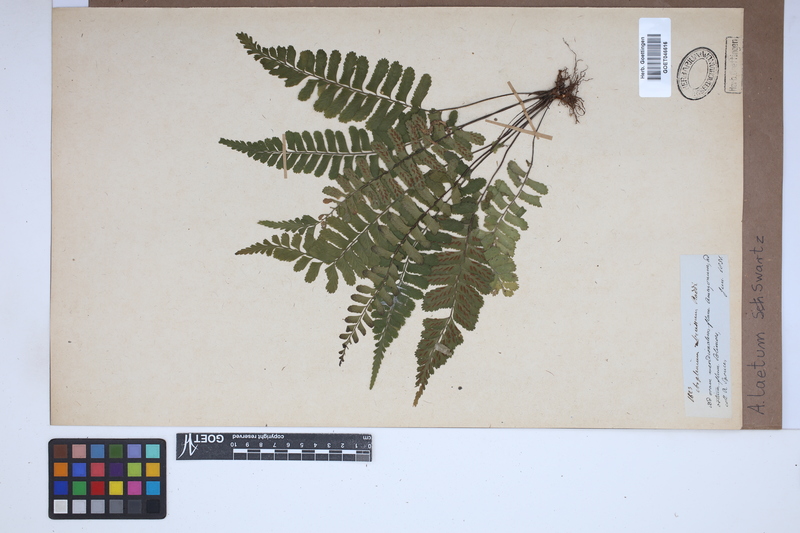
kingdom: Plantae
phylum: Tracheophyta
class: Polypodiopsida
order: Polypodiales
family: Aspleniaceae
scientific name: Aspleniaceae
